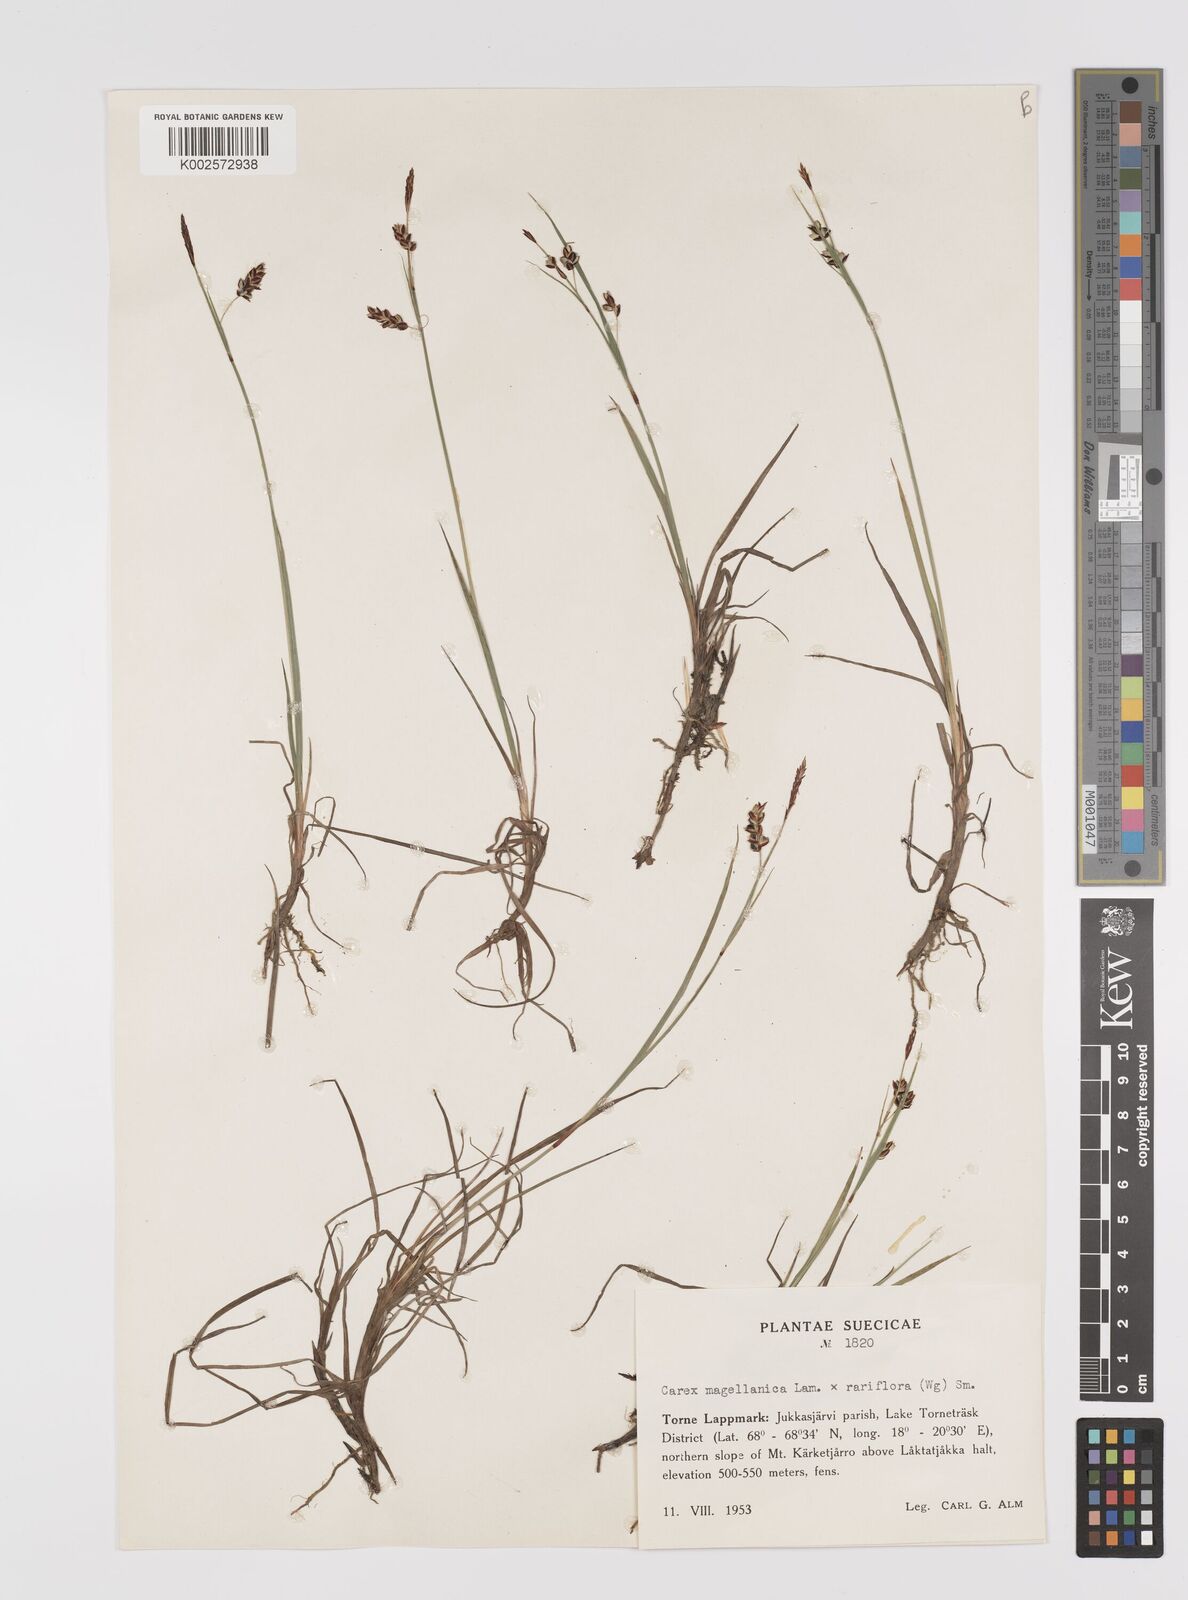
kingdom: Plantae
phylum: Tracheophyta
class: Liliopsida
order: Poales
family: Cyperaceae
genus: Carex
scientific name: Carex rariflora
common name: Loose-flowered alpine sedge
